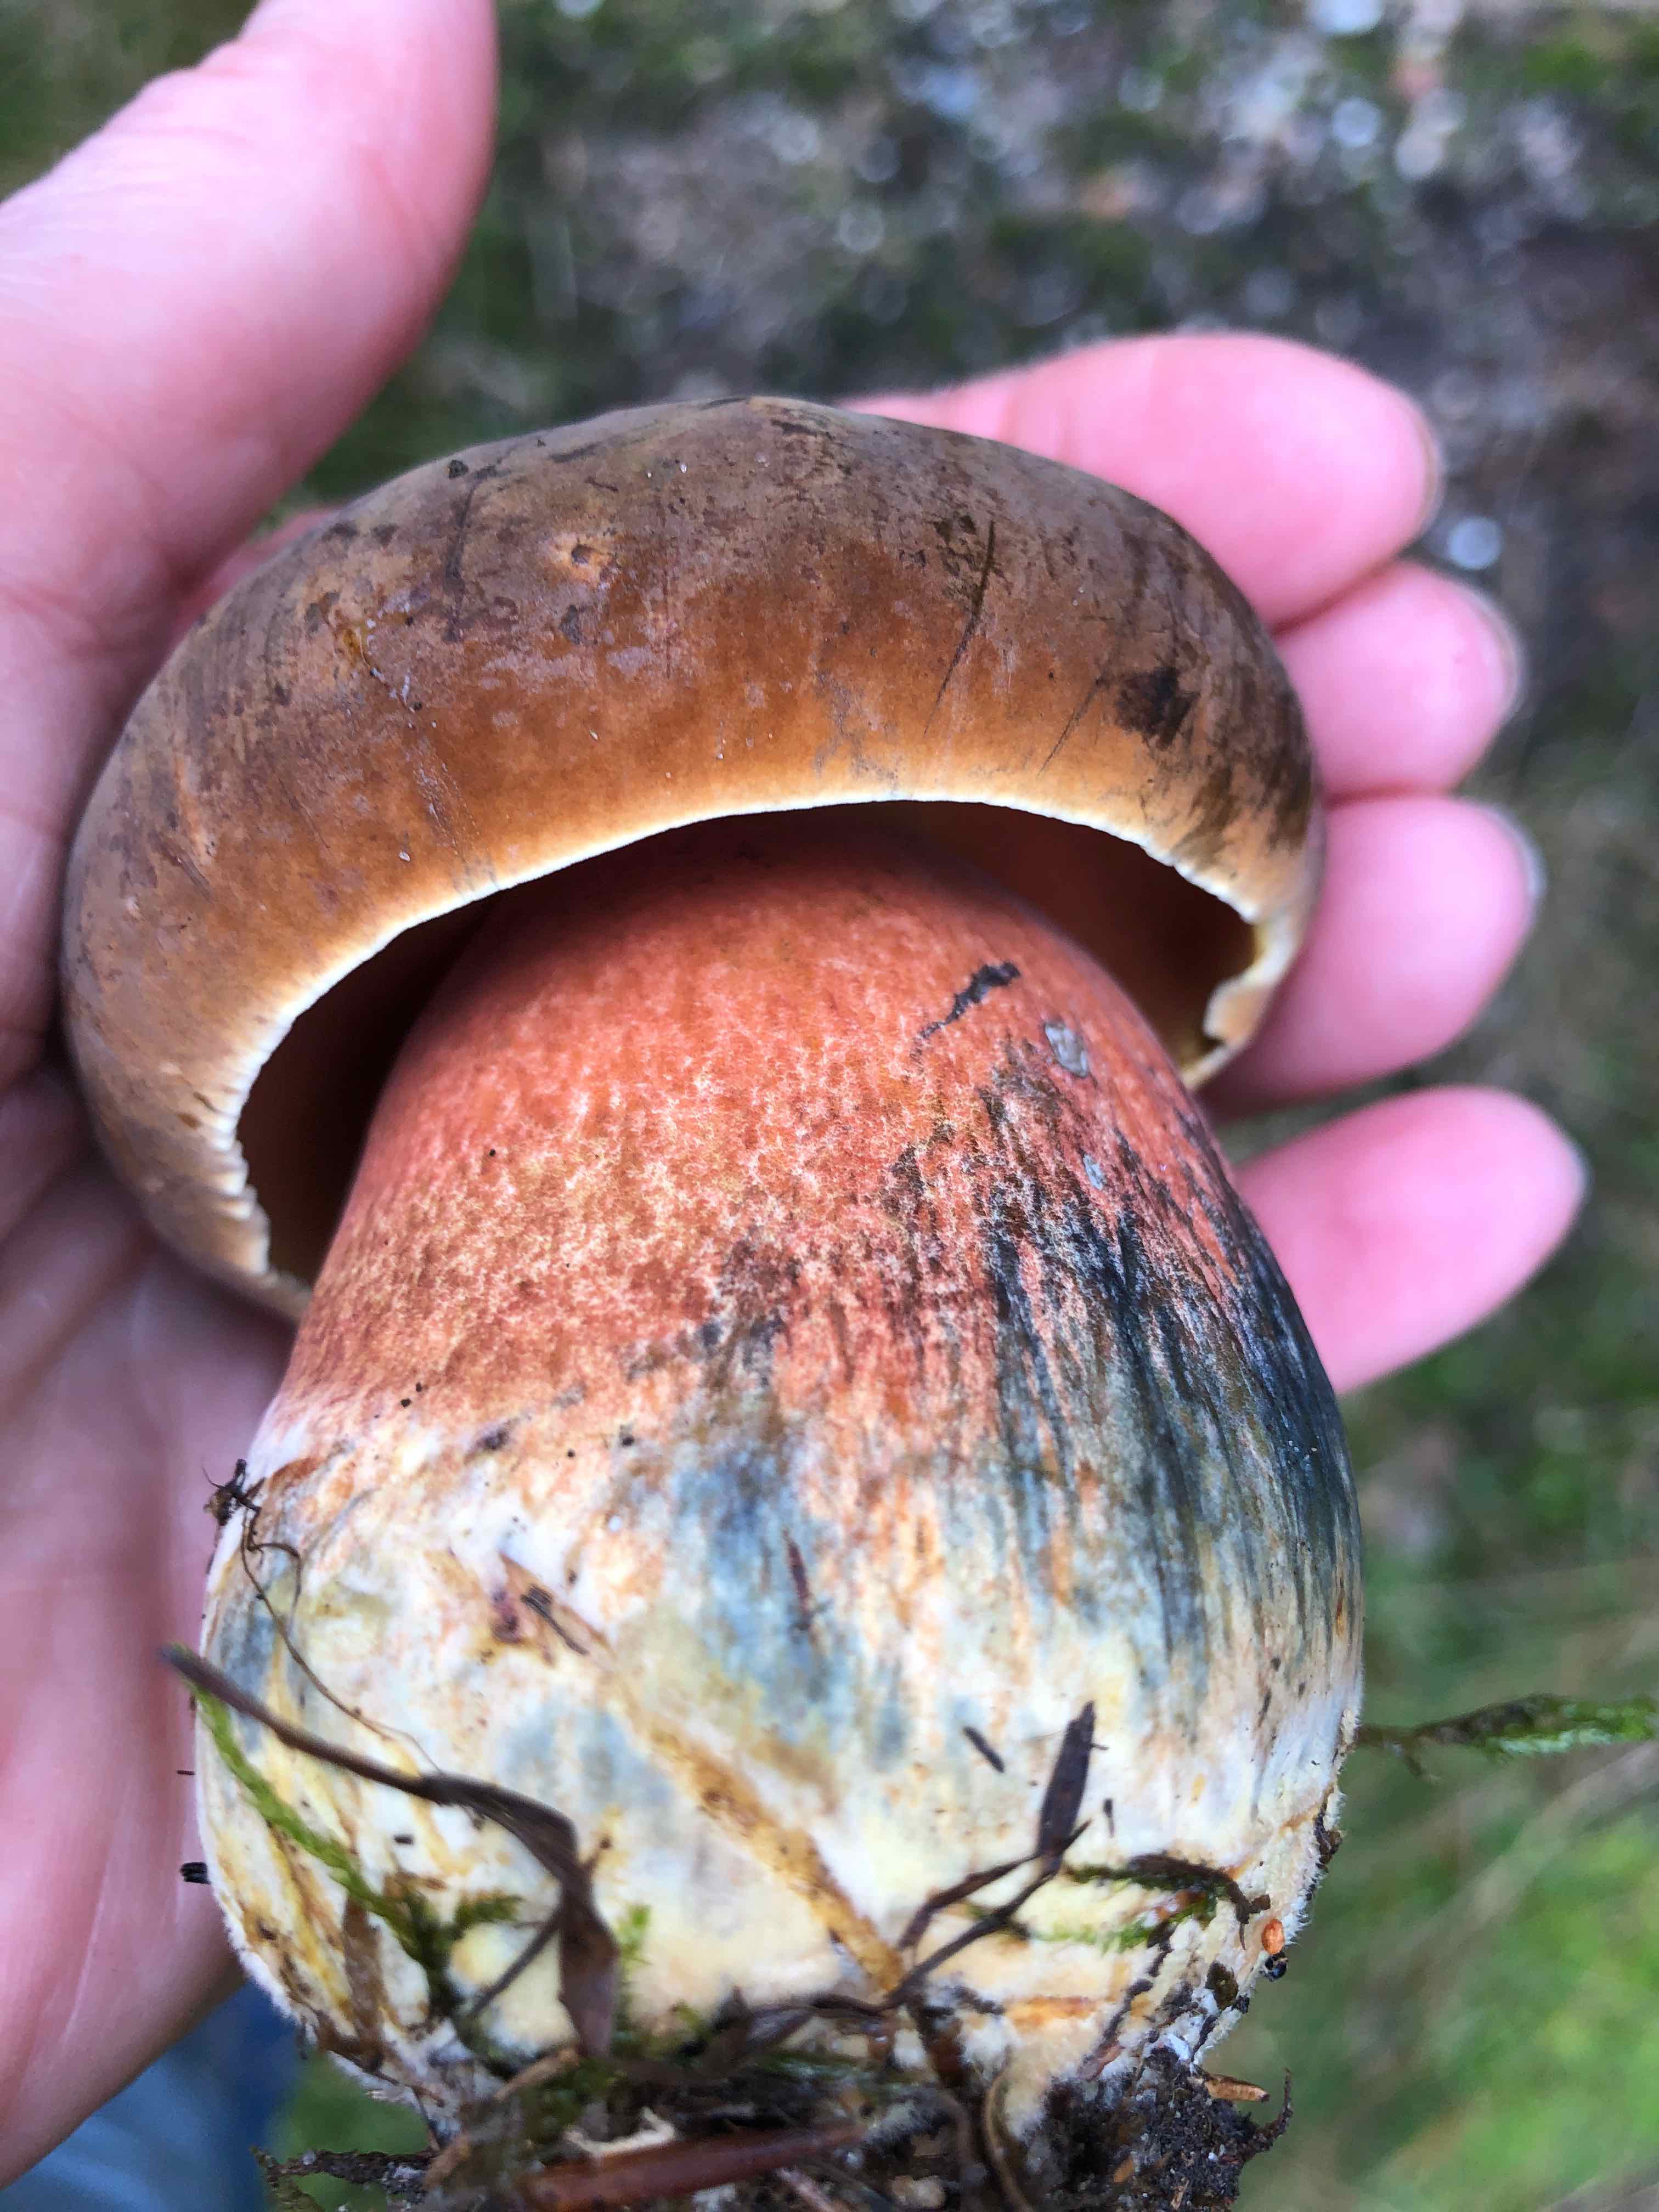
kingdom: Fungi
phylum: Basidiomycota
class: Agaricomycetes
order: Boletales
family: Boletaceae
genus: Neoboletus
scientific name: Neoboletus erythropus
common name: punktstokket indigorørhat
